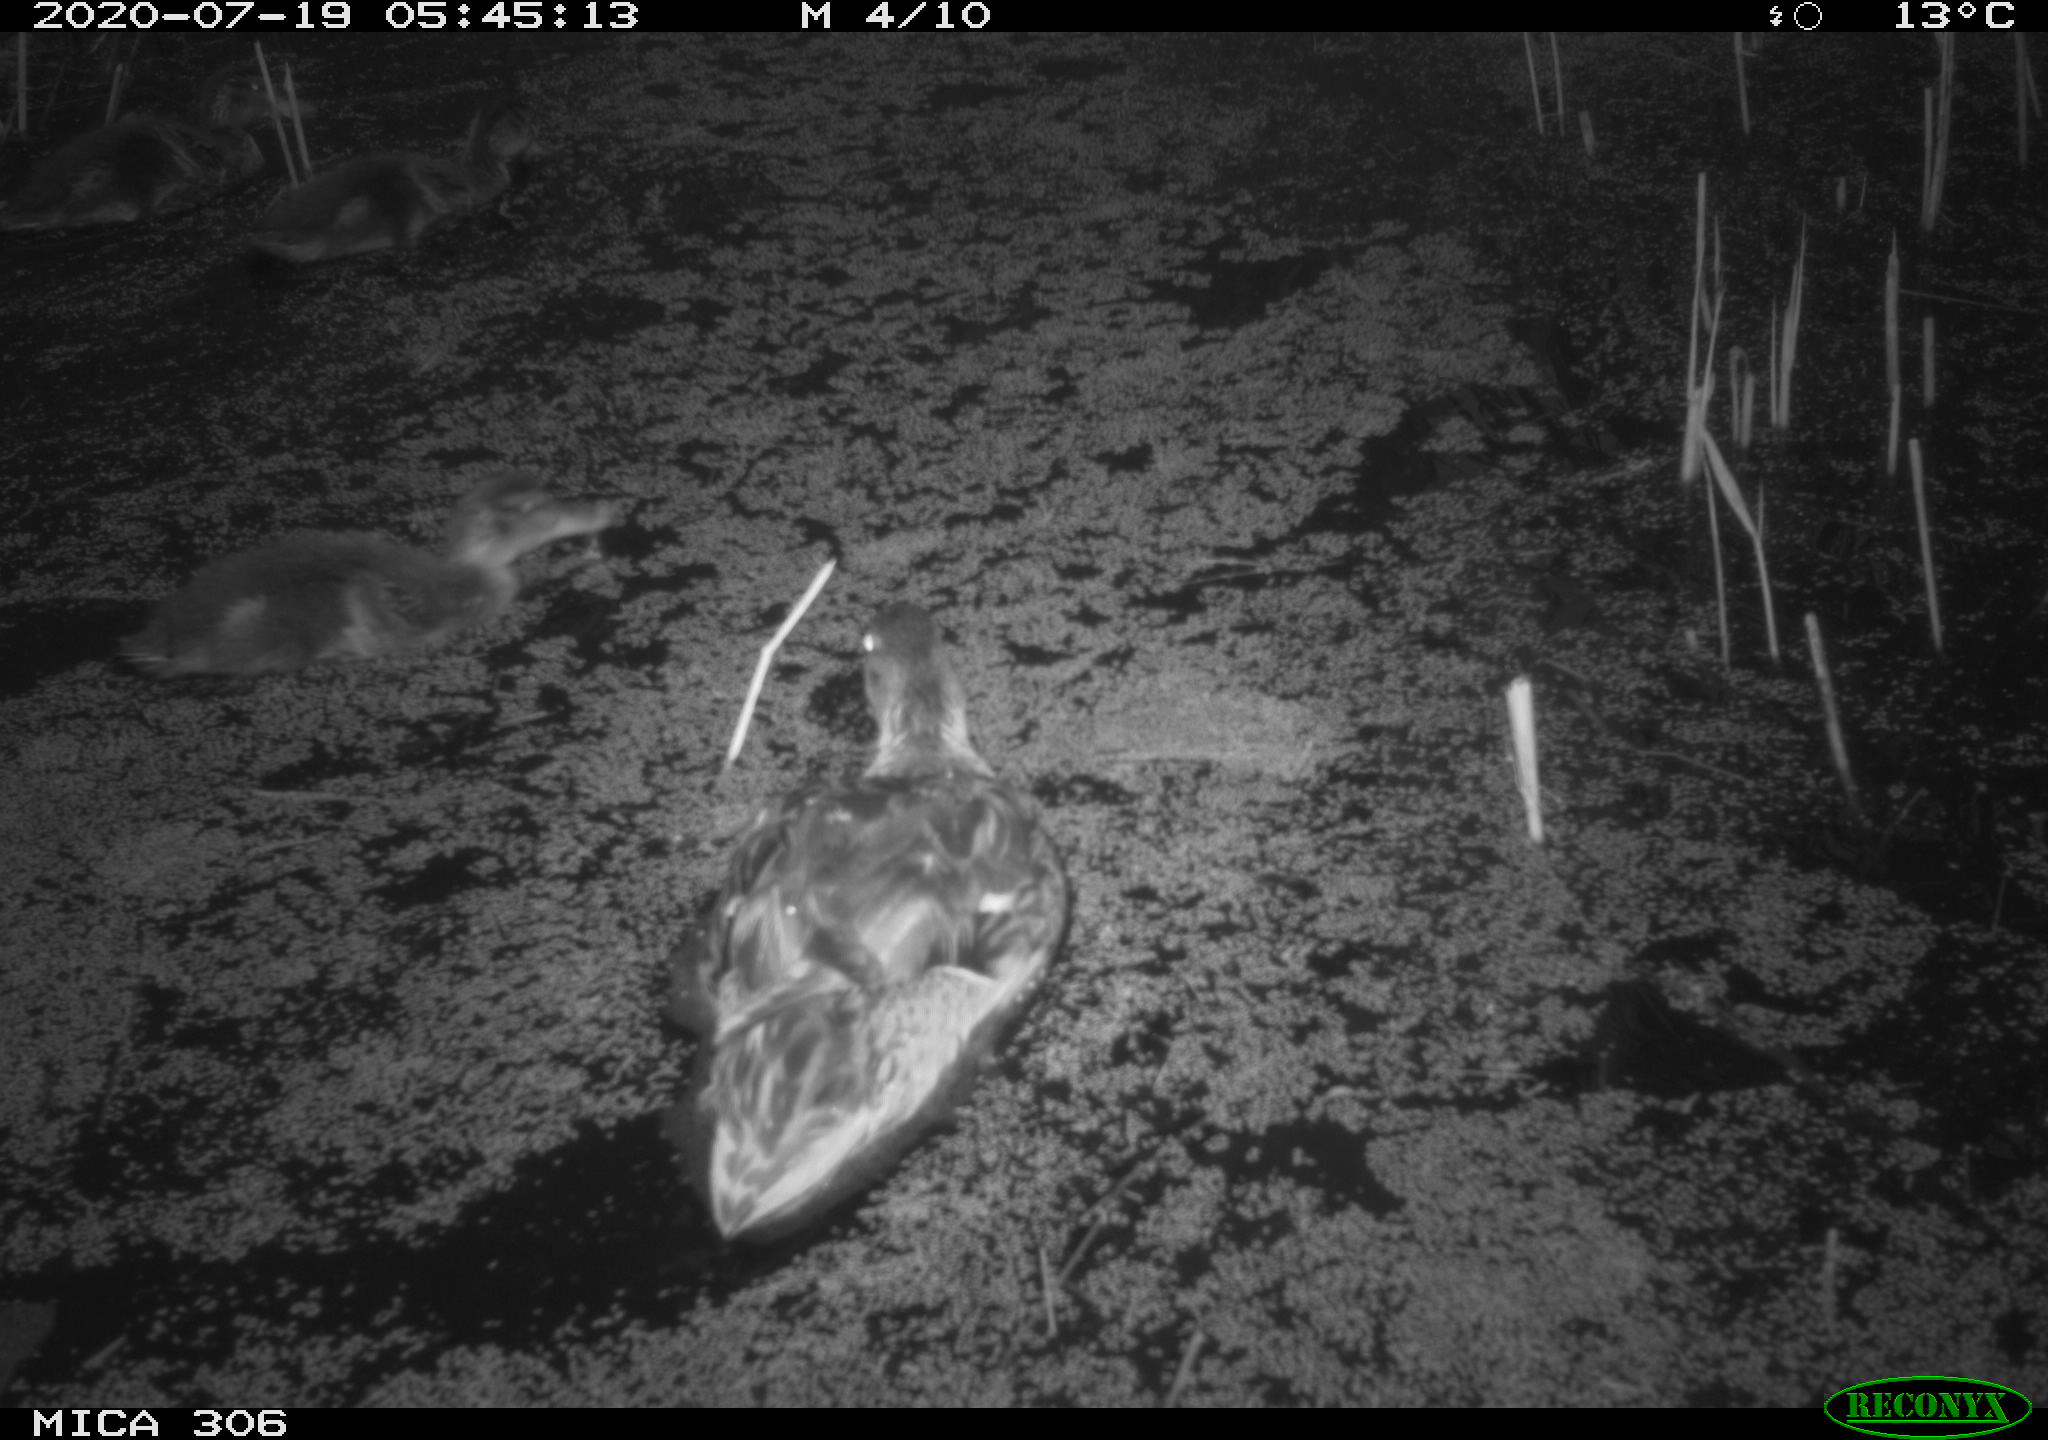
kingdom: Animalia
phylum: Chordata
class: Aves
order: Anseriformes
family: Anatidae
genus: Anas
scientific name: Anas platyrhynchos
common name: Mallard
